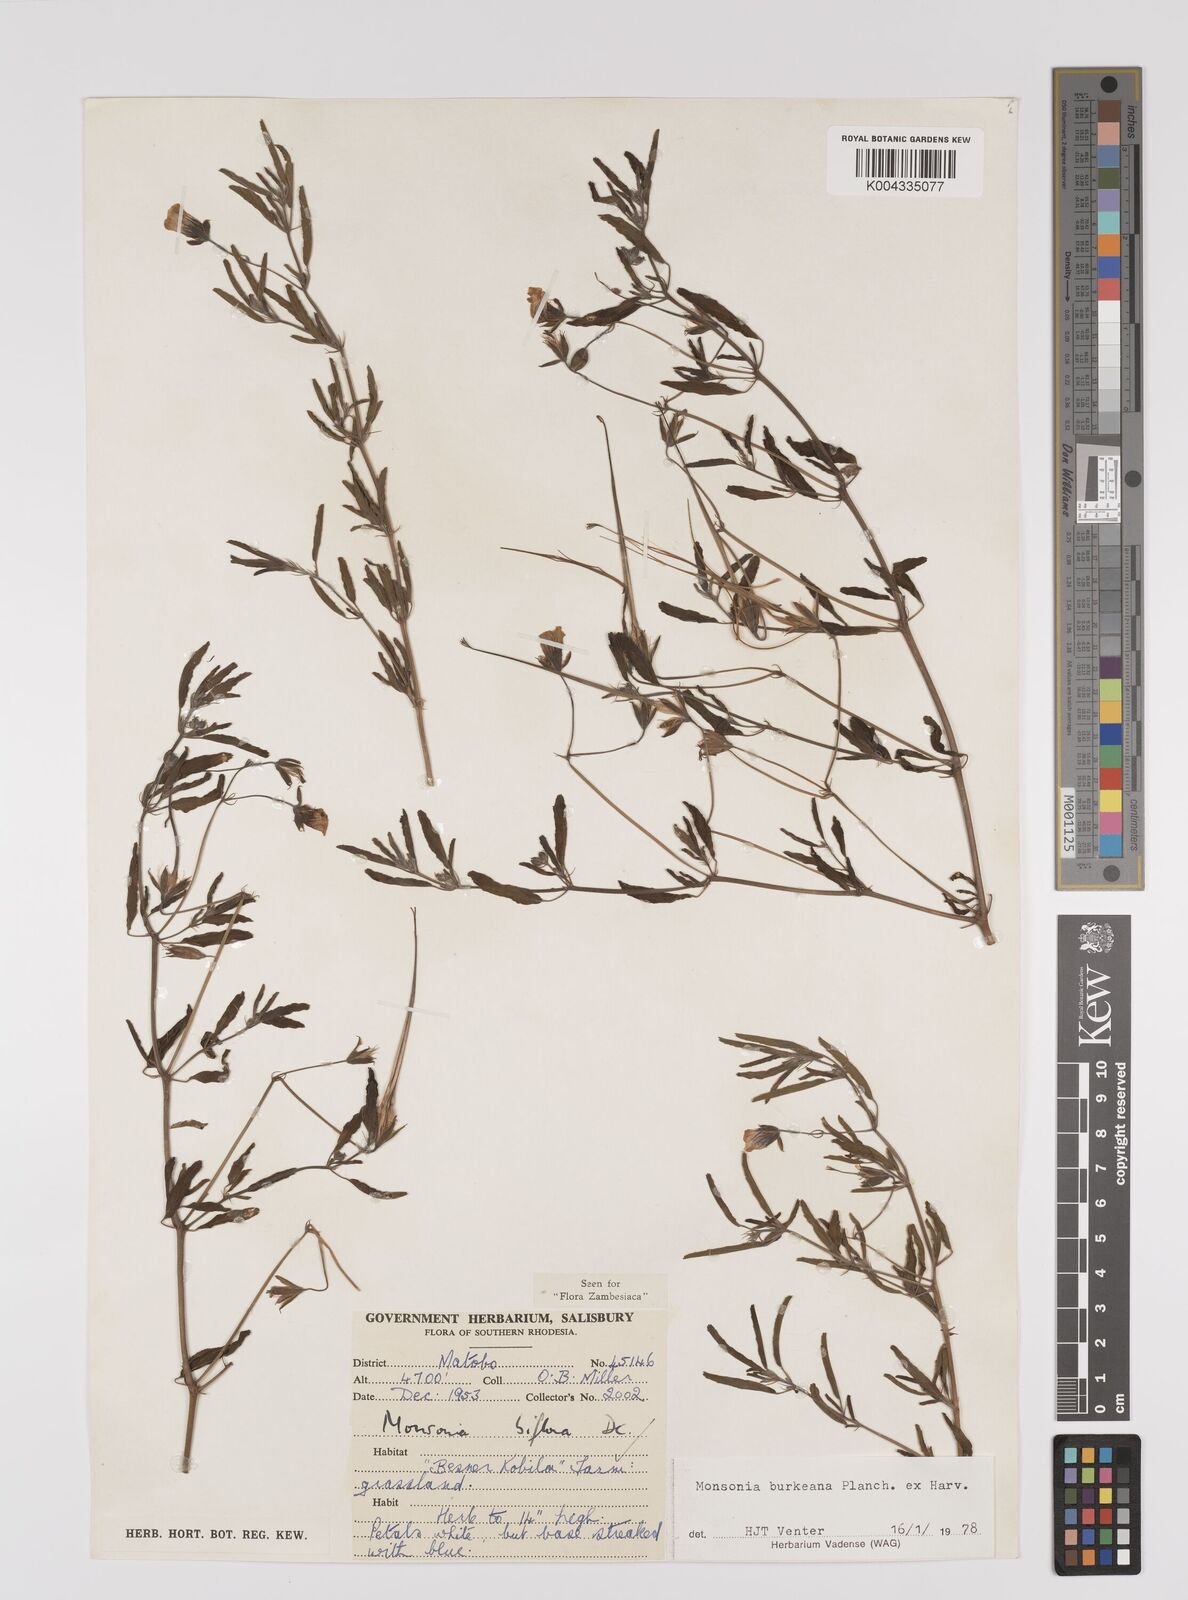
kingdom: Plantae
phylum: Tracheophyta
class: Magnoliopsida
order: Geraniales
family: Geraniaceae
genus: Monsonia
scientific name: Monsonia biflora
